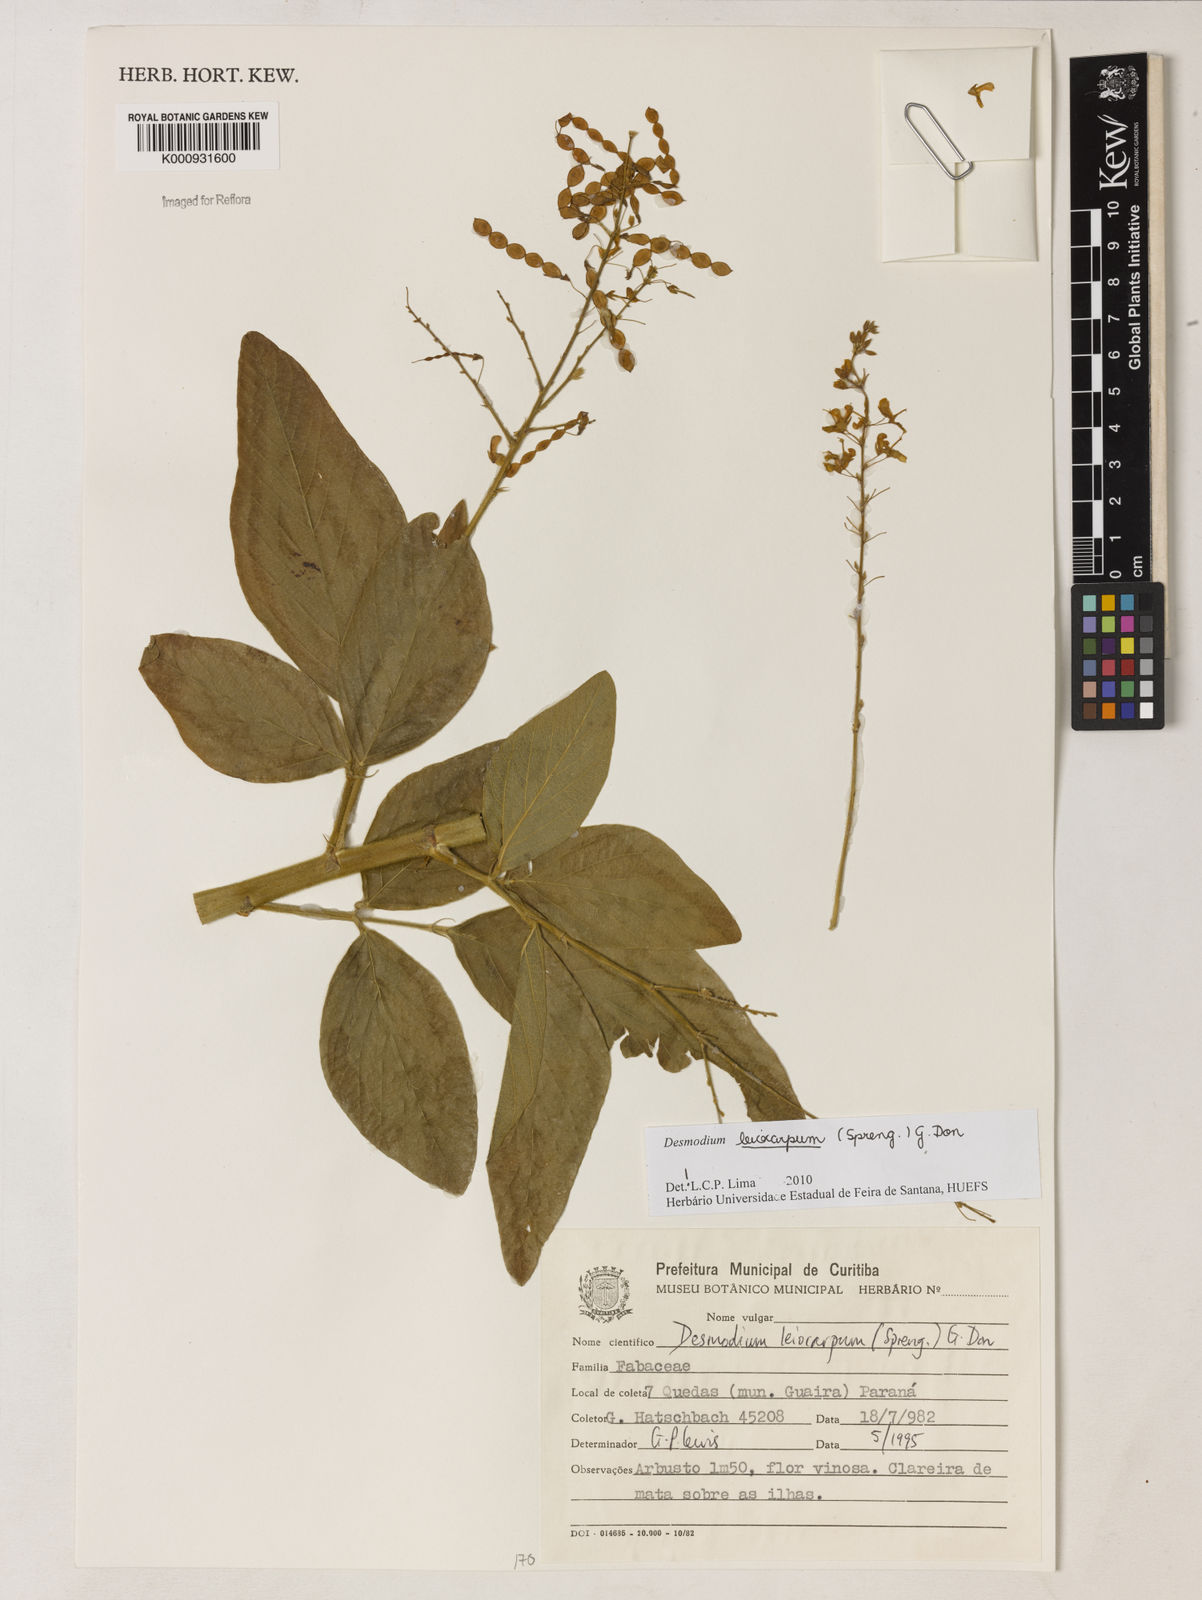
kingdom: Plantae
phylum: Tracheophyta
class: Magnoliopsida
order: Fabales
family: Fabaceae
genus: Desmodium
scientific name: Desmodium leiocarpum
